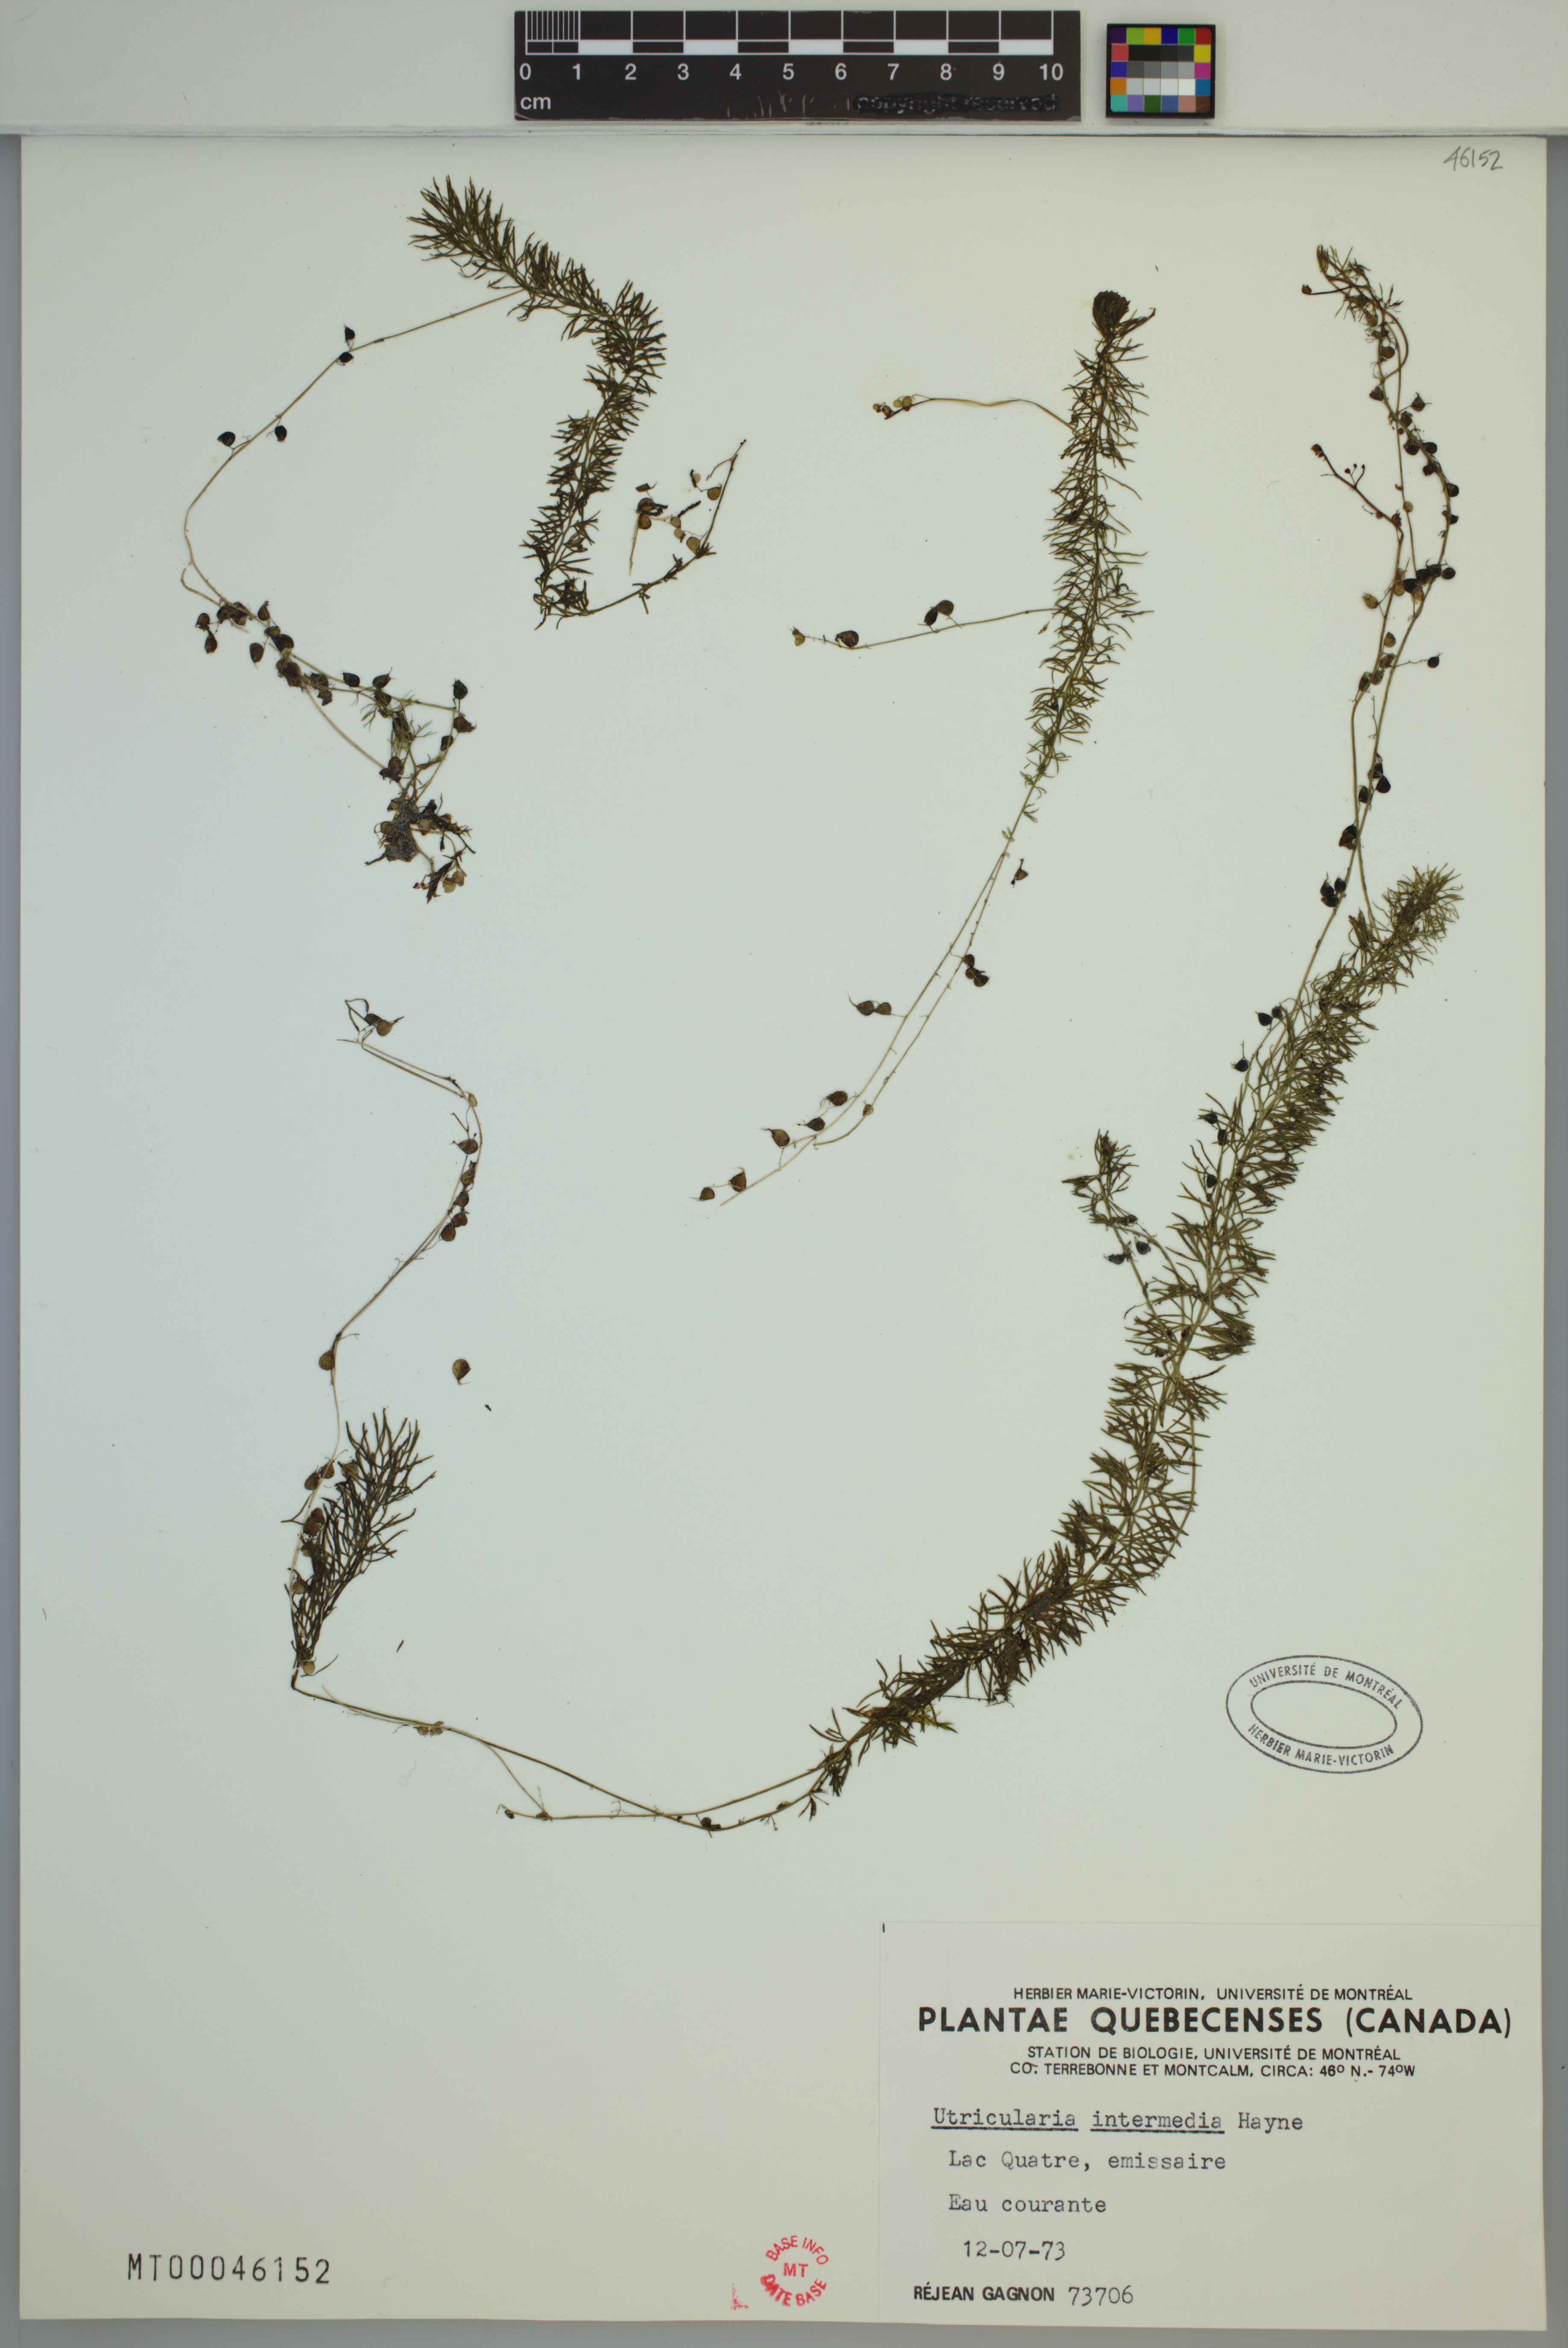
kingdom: Plantae
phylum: Tracheophyta
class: Magnoliopsida
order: Lamiales
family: Lentibulariaceae
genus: Utricularia
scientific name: Utricularia intermedia
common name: Intermediate bladderwort
